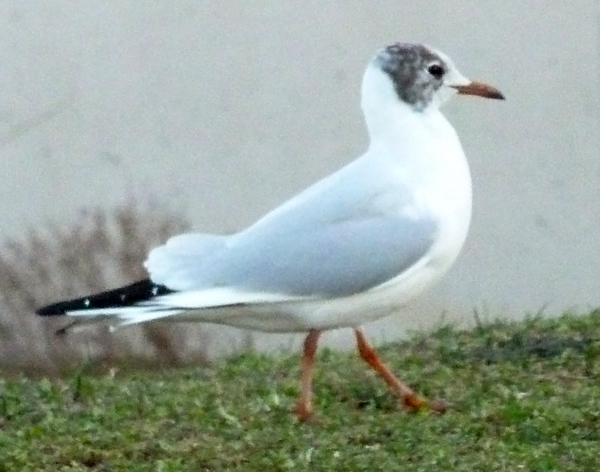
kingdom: Animalia
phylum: Chordata
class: Aves
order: Charadriiformes
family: Laridae
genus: Chroicocephalus
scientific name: Chroicocephalus ridibundus
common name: Black-headed gull
